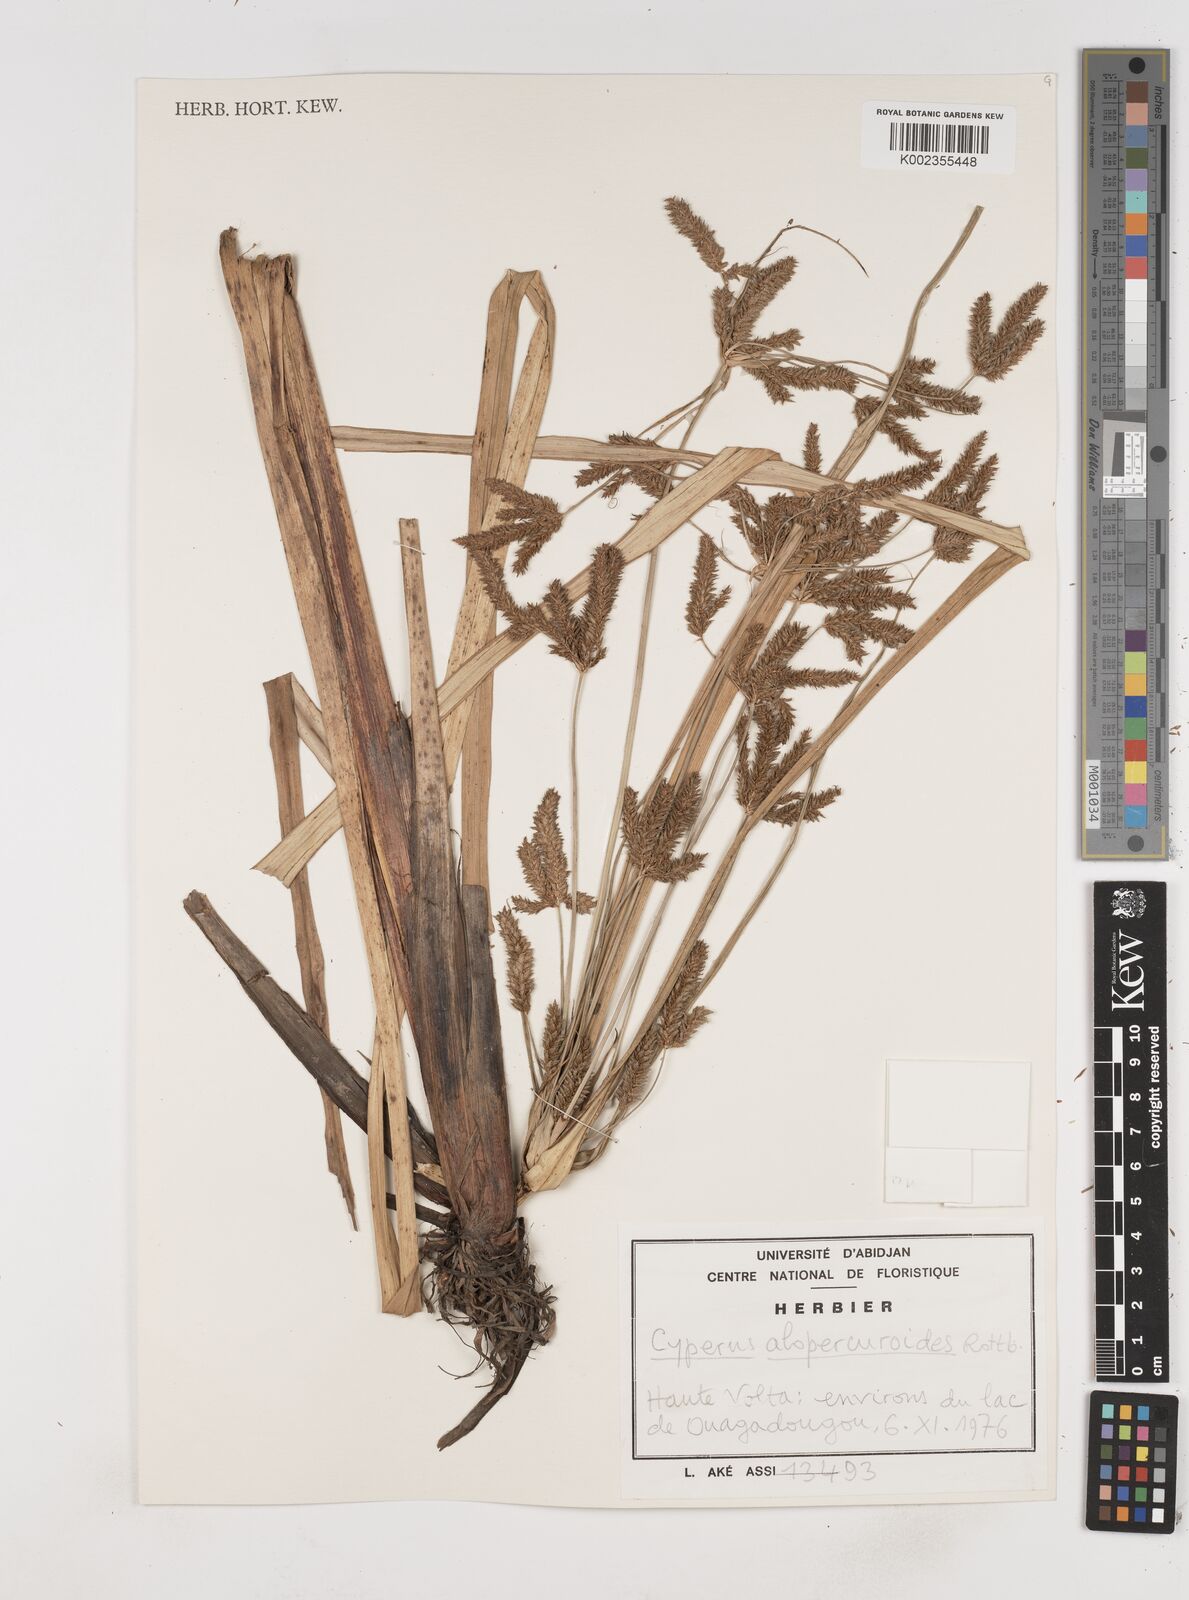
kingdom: Plantae
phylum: Tracheophyta
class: Liliopsida
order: Poales
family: Cyperaceae
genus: Cyperus
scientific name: Cyperus alopecuroides
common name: Foxtail flatsedge
